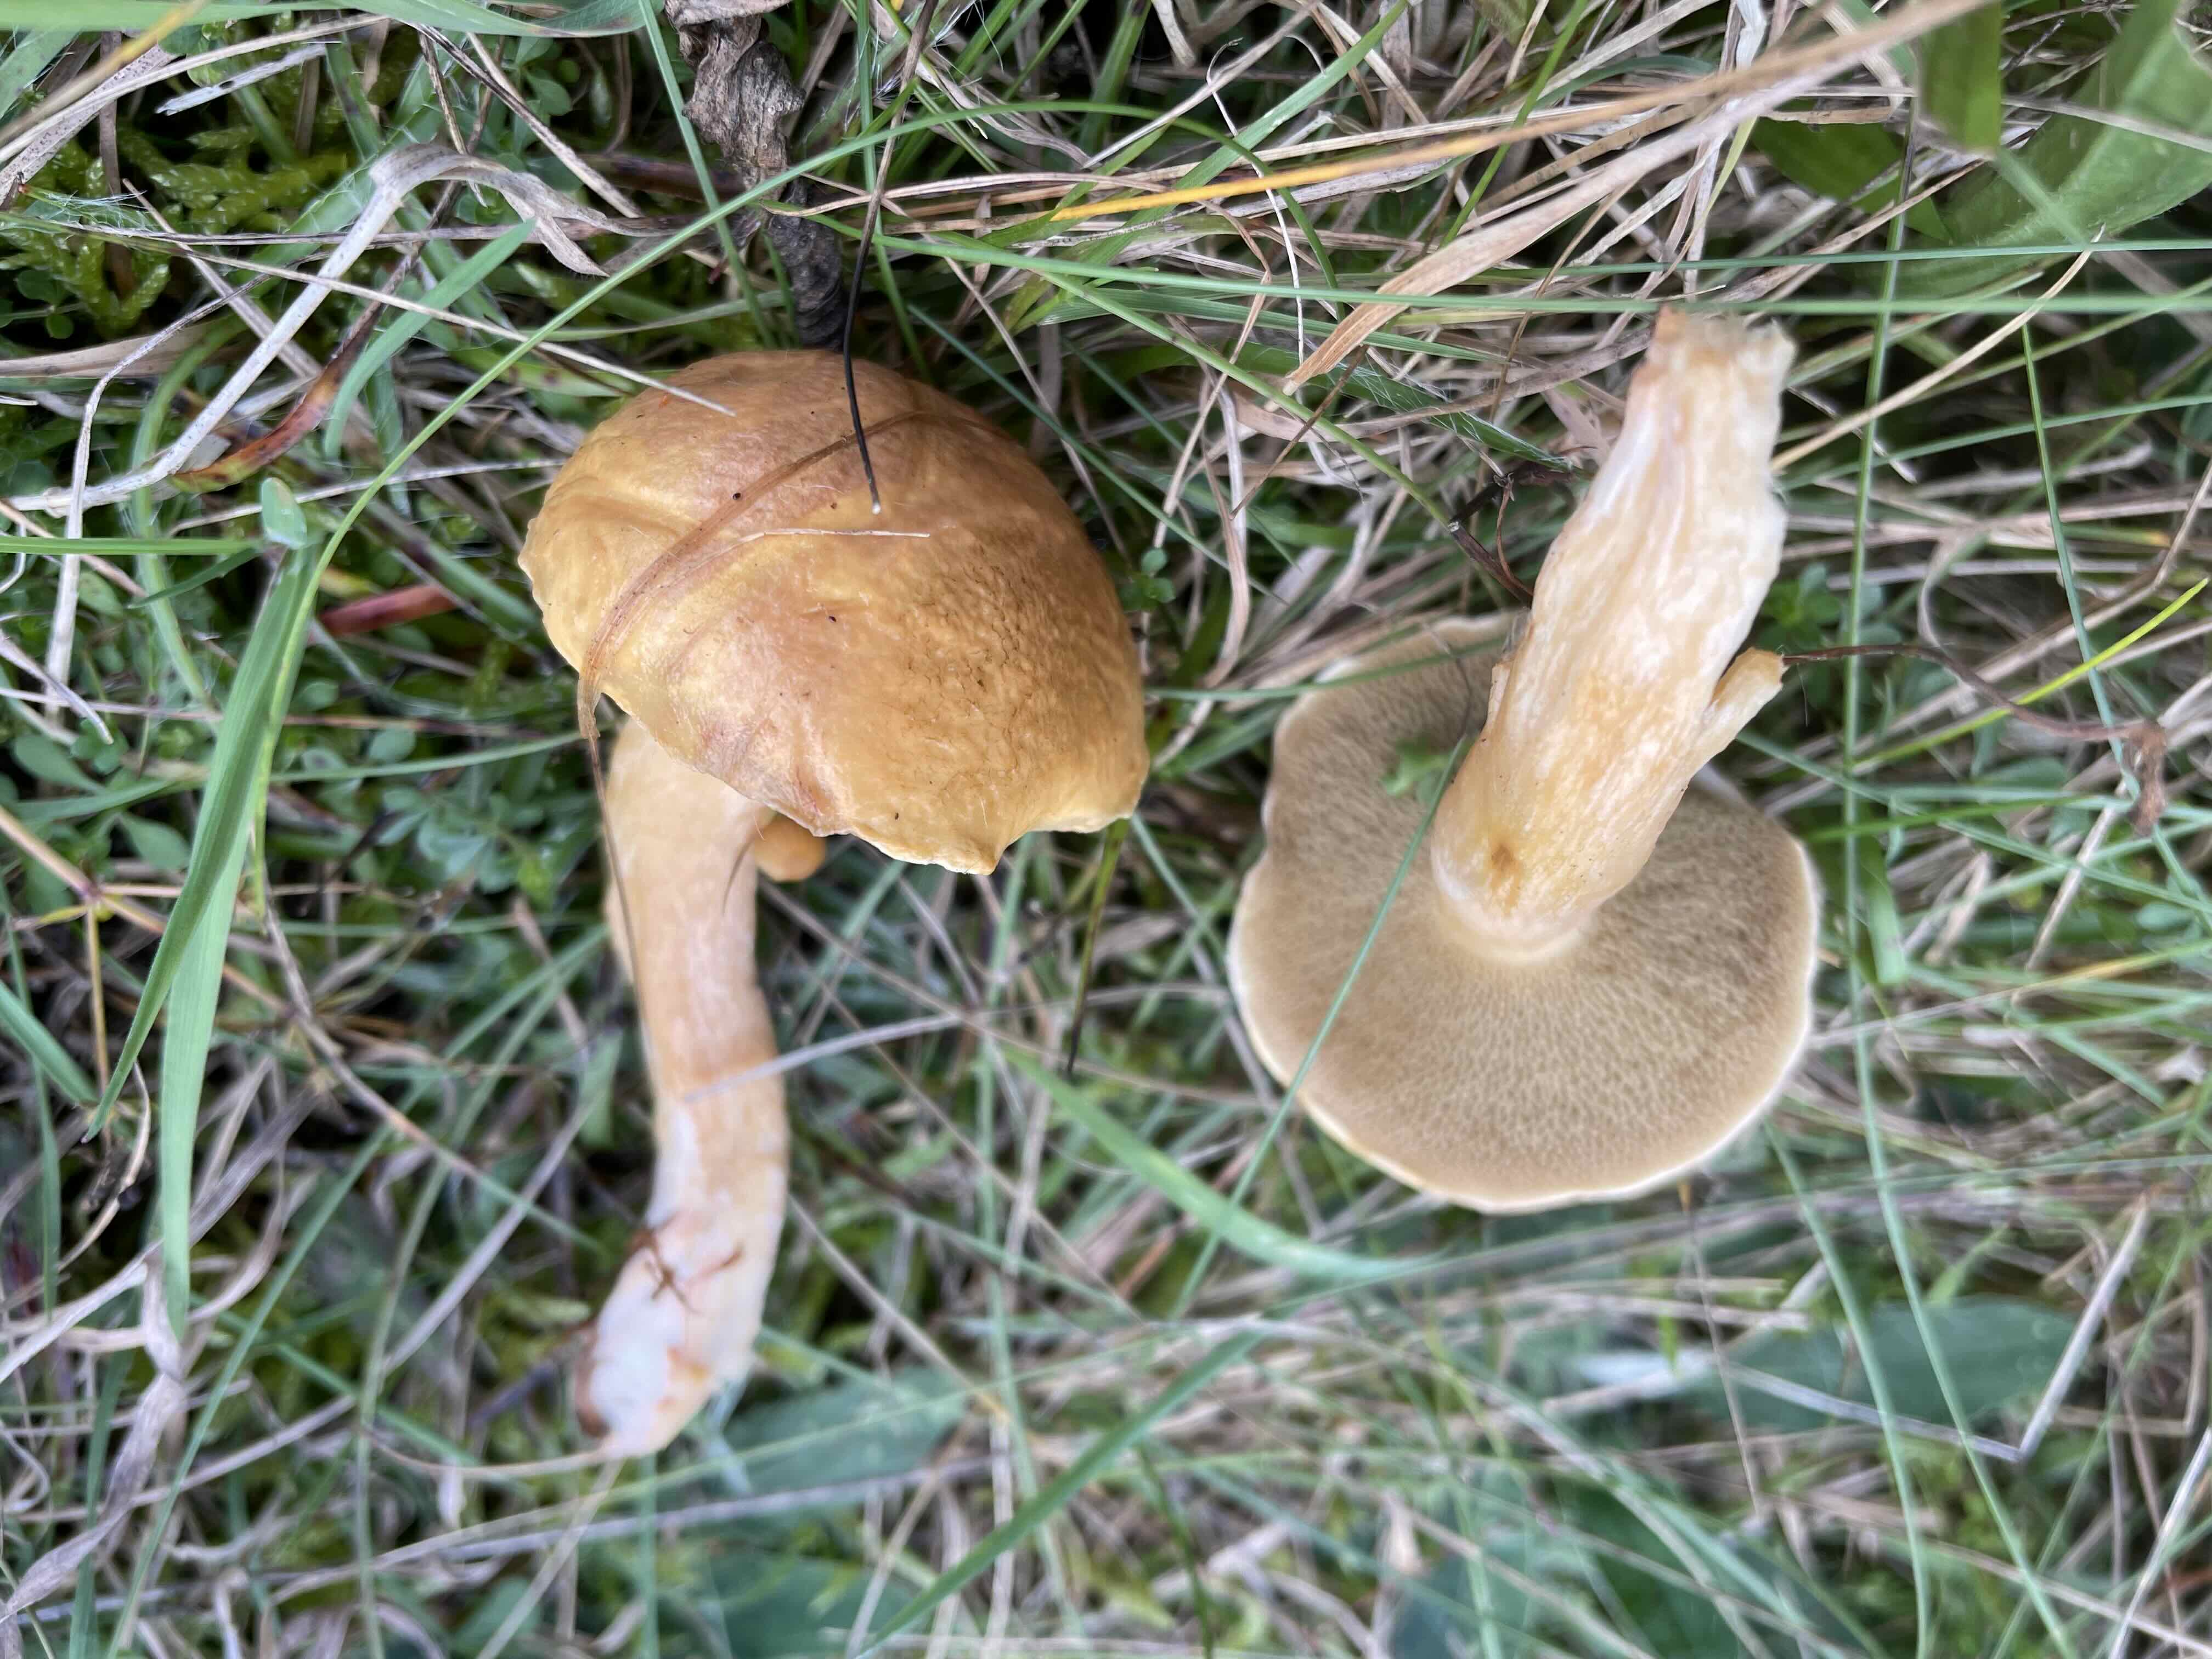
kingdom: Fungi
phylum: Basidiomycota
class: Agaricomycetes
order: Boletales
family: Suillaceae
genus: Suillus
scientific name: Suillus bovinus
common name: grovporet slimrørhat
